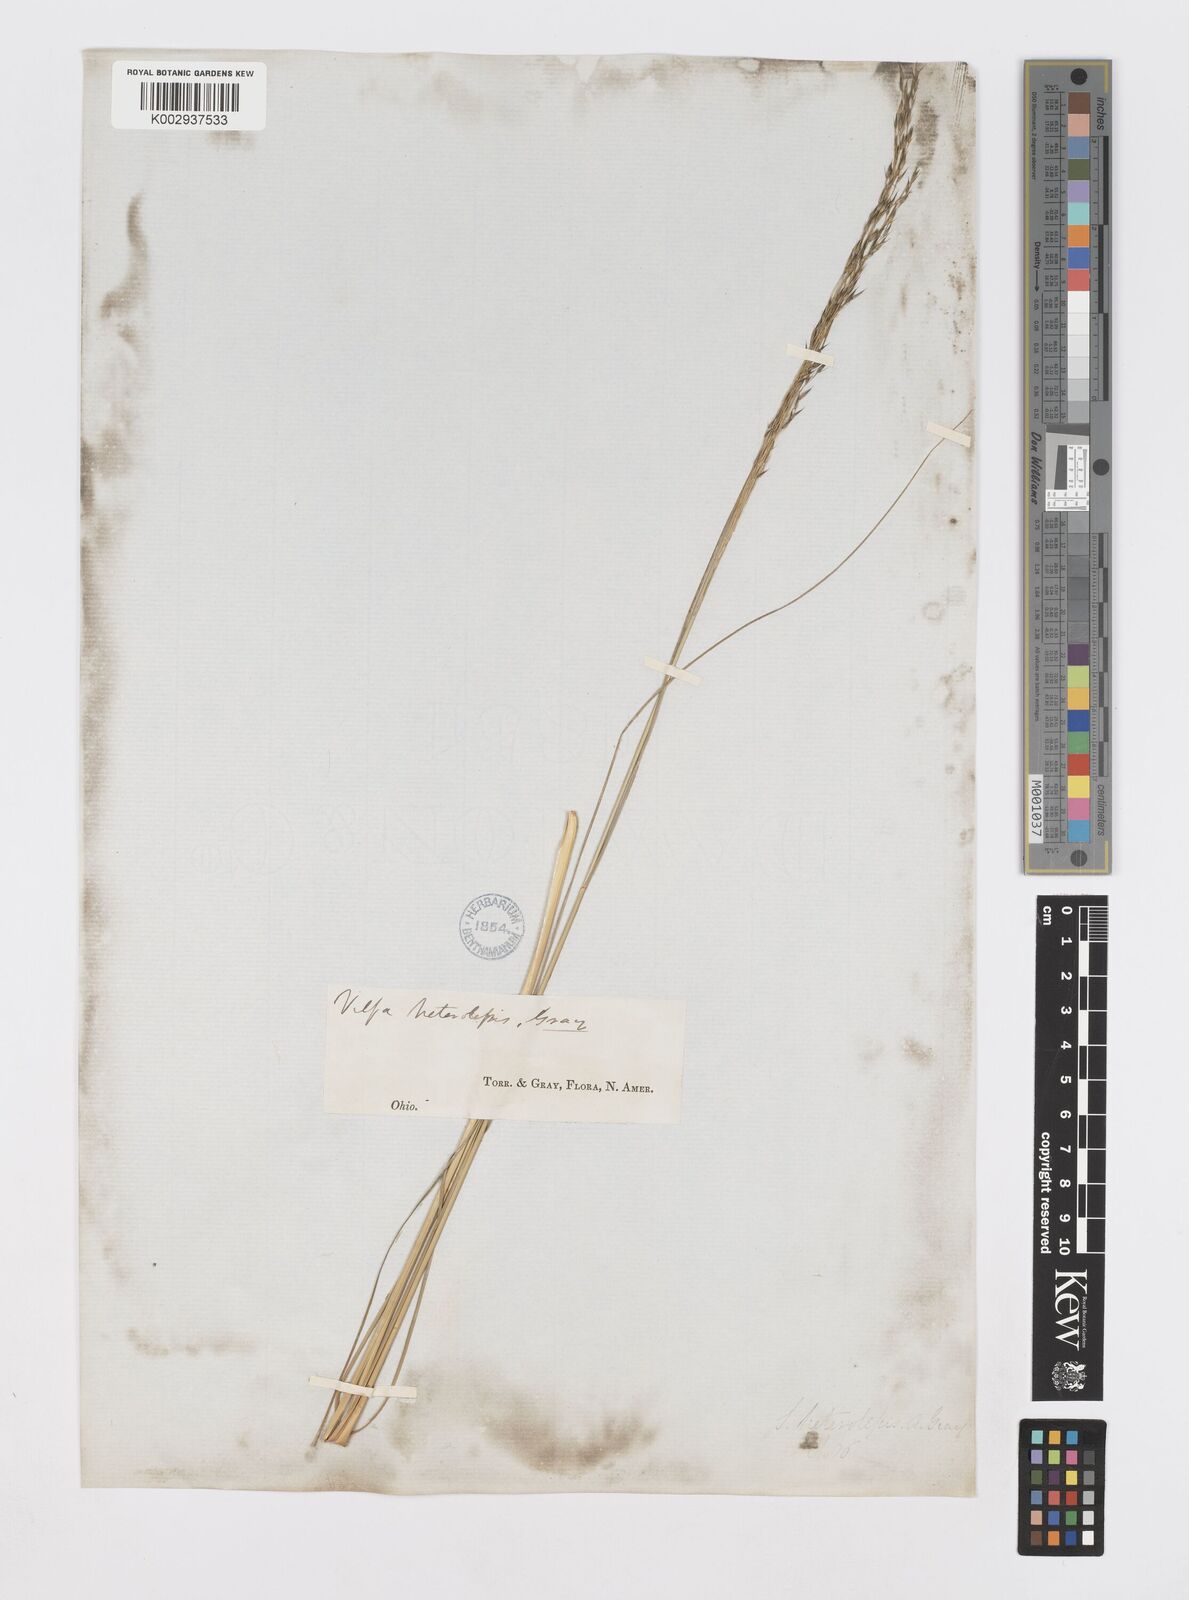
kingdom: Plantae
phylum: Tracheophyta
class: Liliopsida
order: Poales
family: Poaceae
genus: Sporobolus
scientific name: Sporobolus heterolepis
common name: Prairie dropseed
